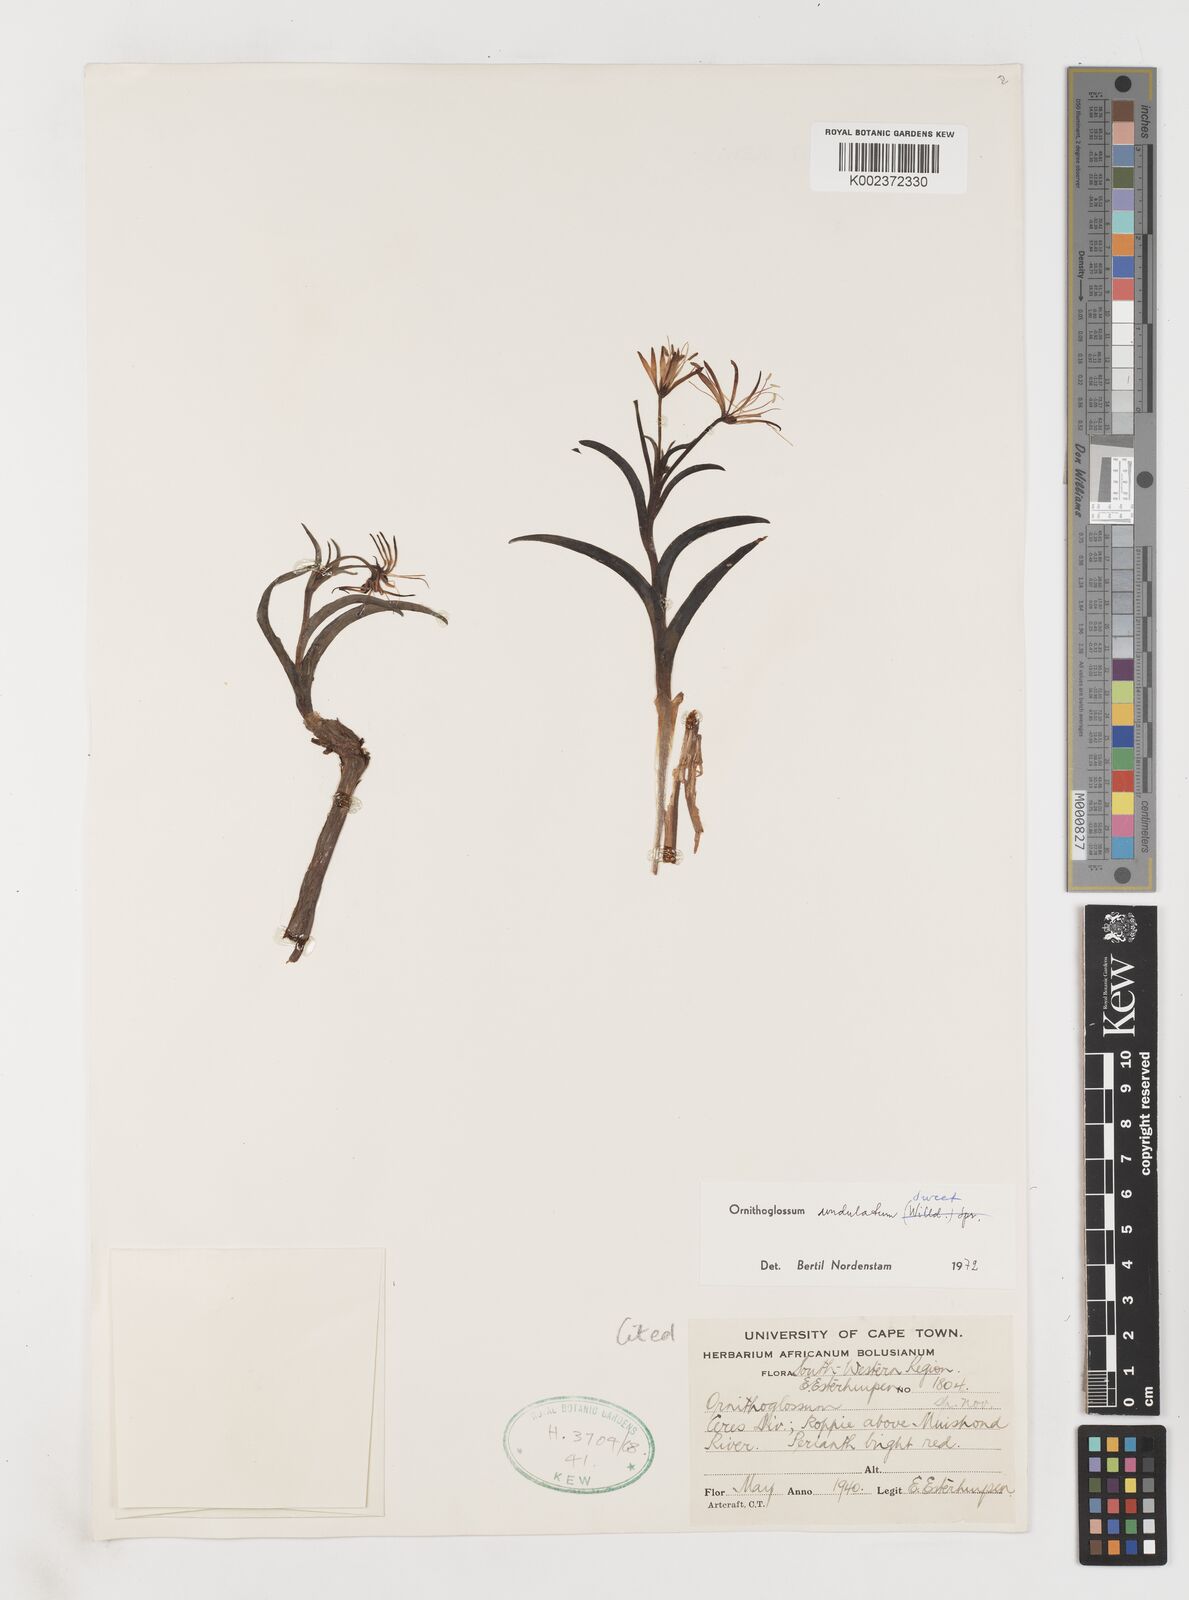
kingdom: Plantae
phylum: Tracheophyta
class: Liliopsida
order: Liliales
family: Colchicaceae
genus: Ornithoglossum
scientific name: Ornithoglossum undulatum
